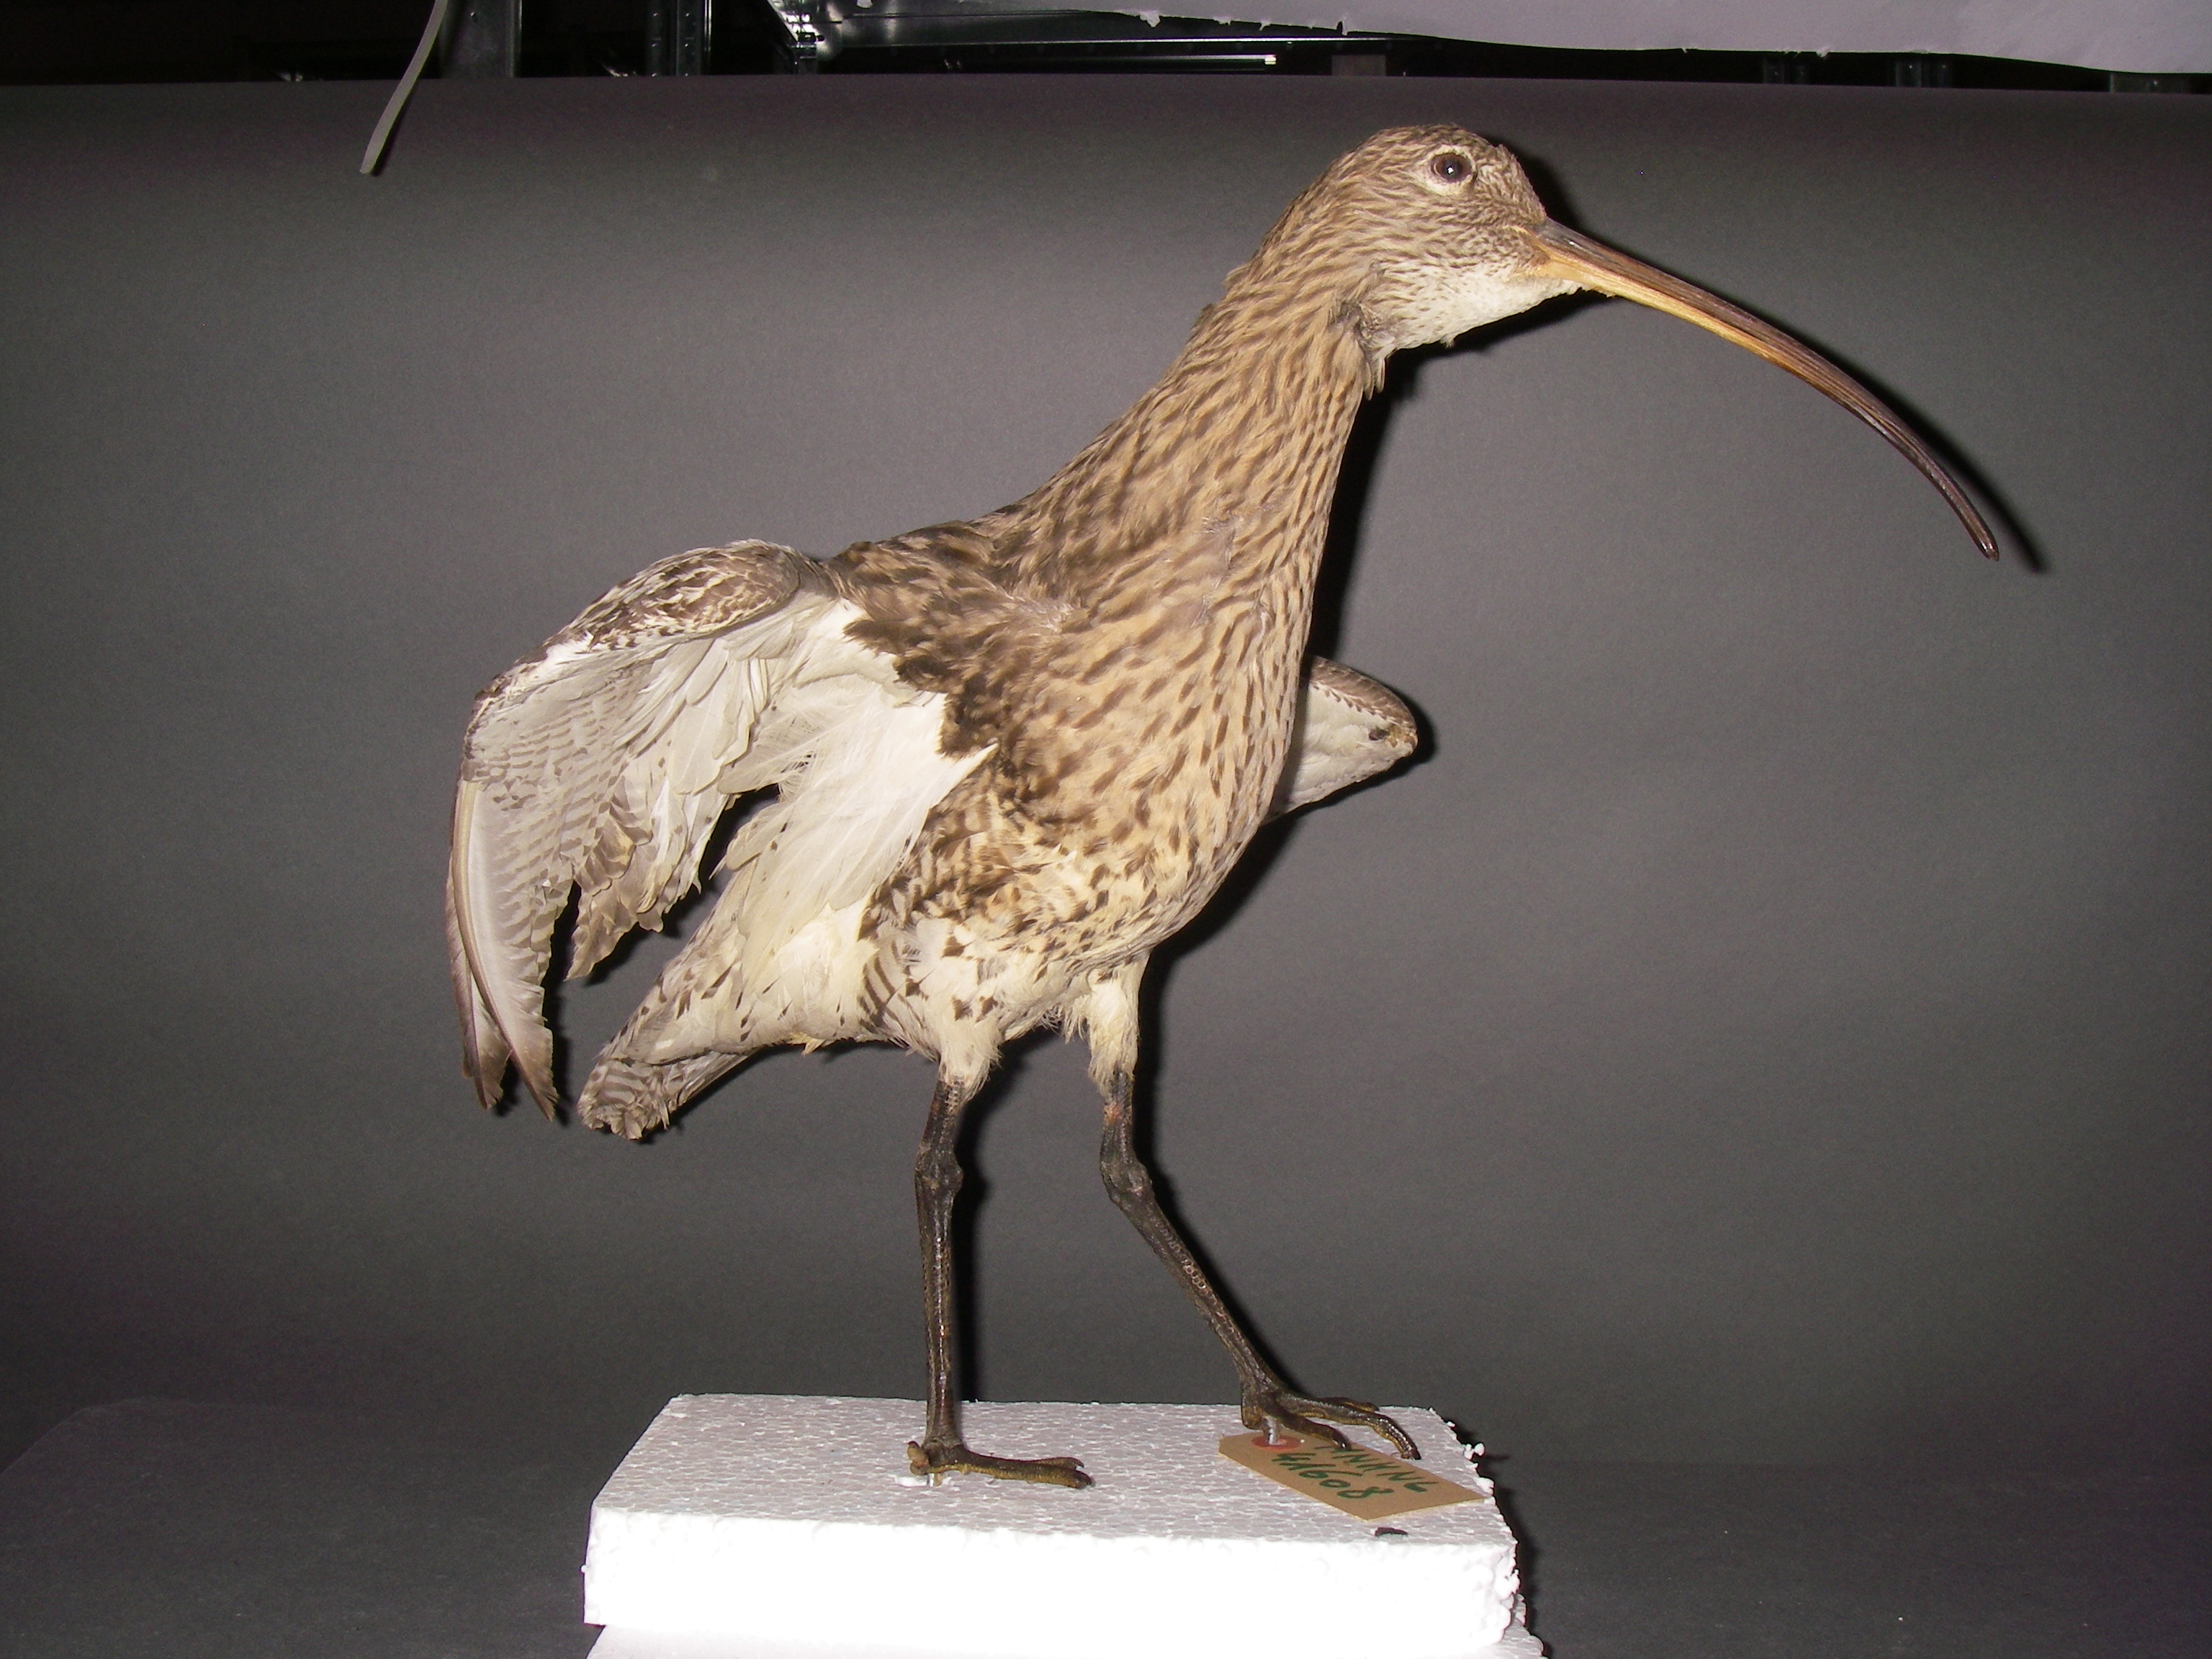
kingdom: Animalia
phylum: Chordata
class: Aves
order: Charadriiformes
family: Scolopacidae
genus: Numenius
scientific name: Numenius arquata
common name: Eurasian curlew
